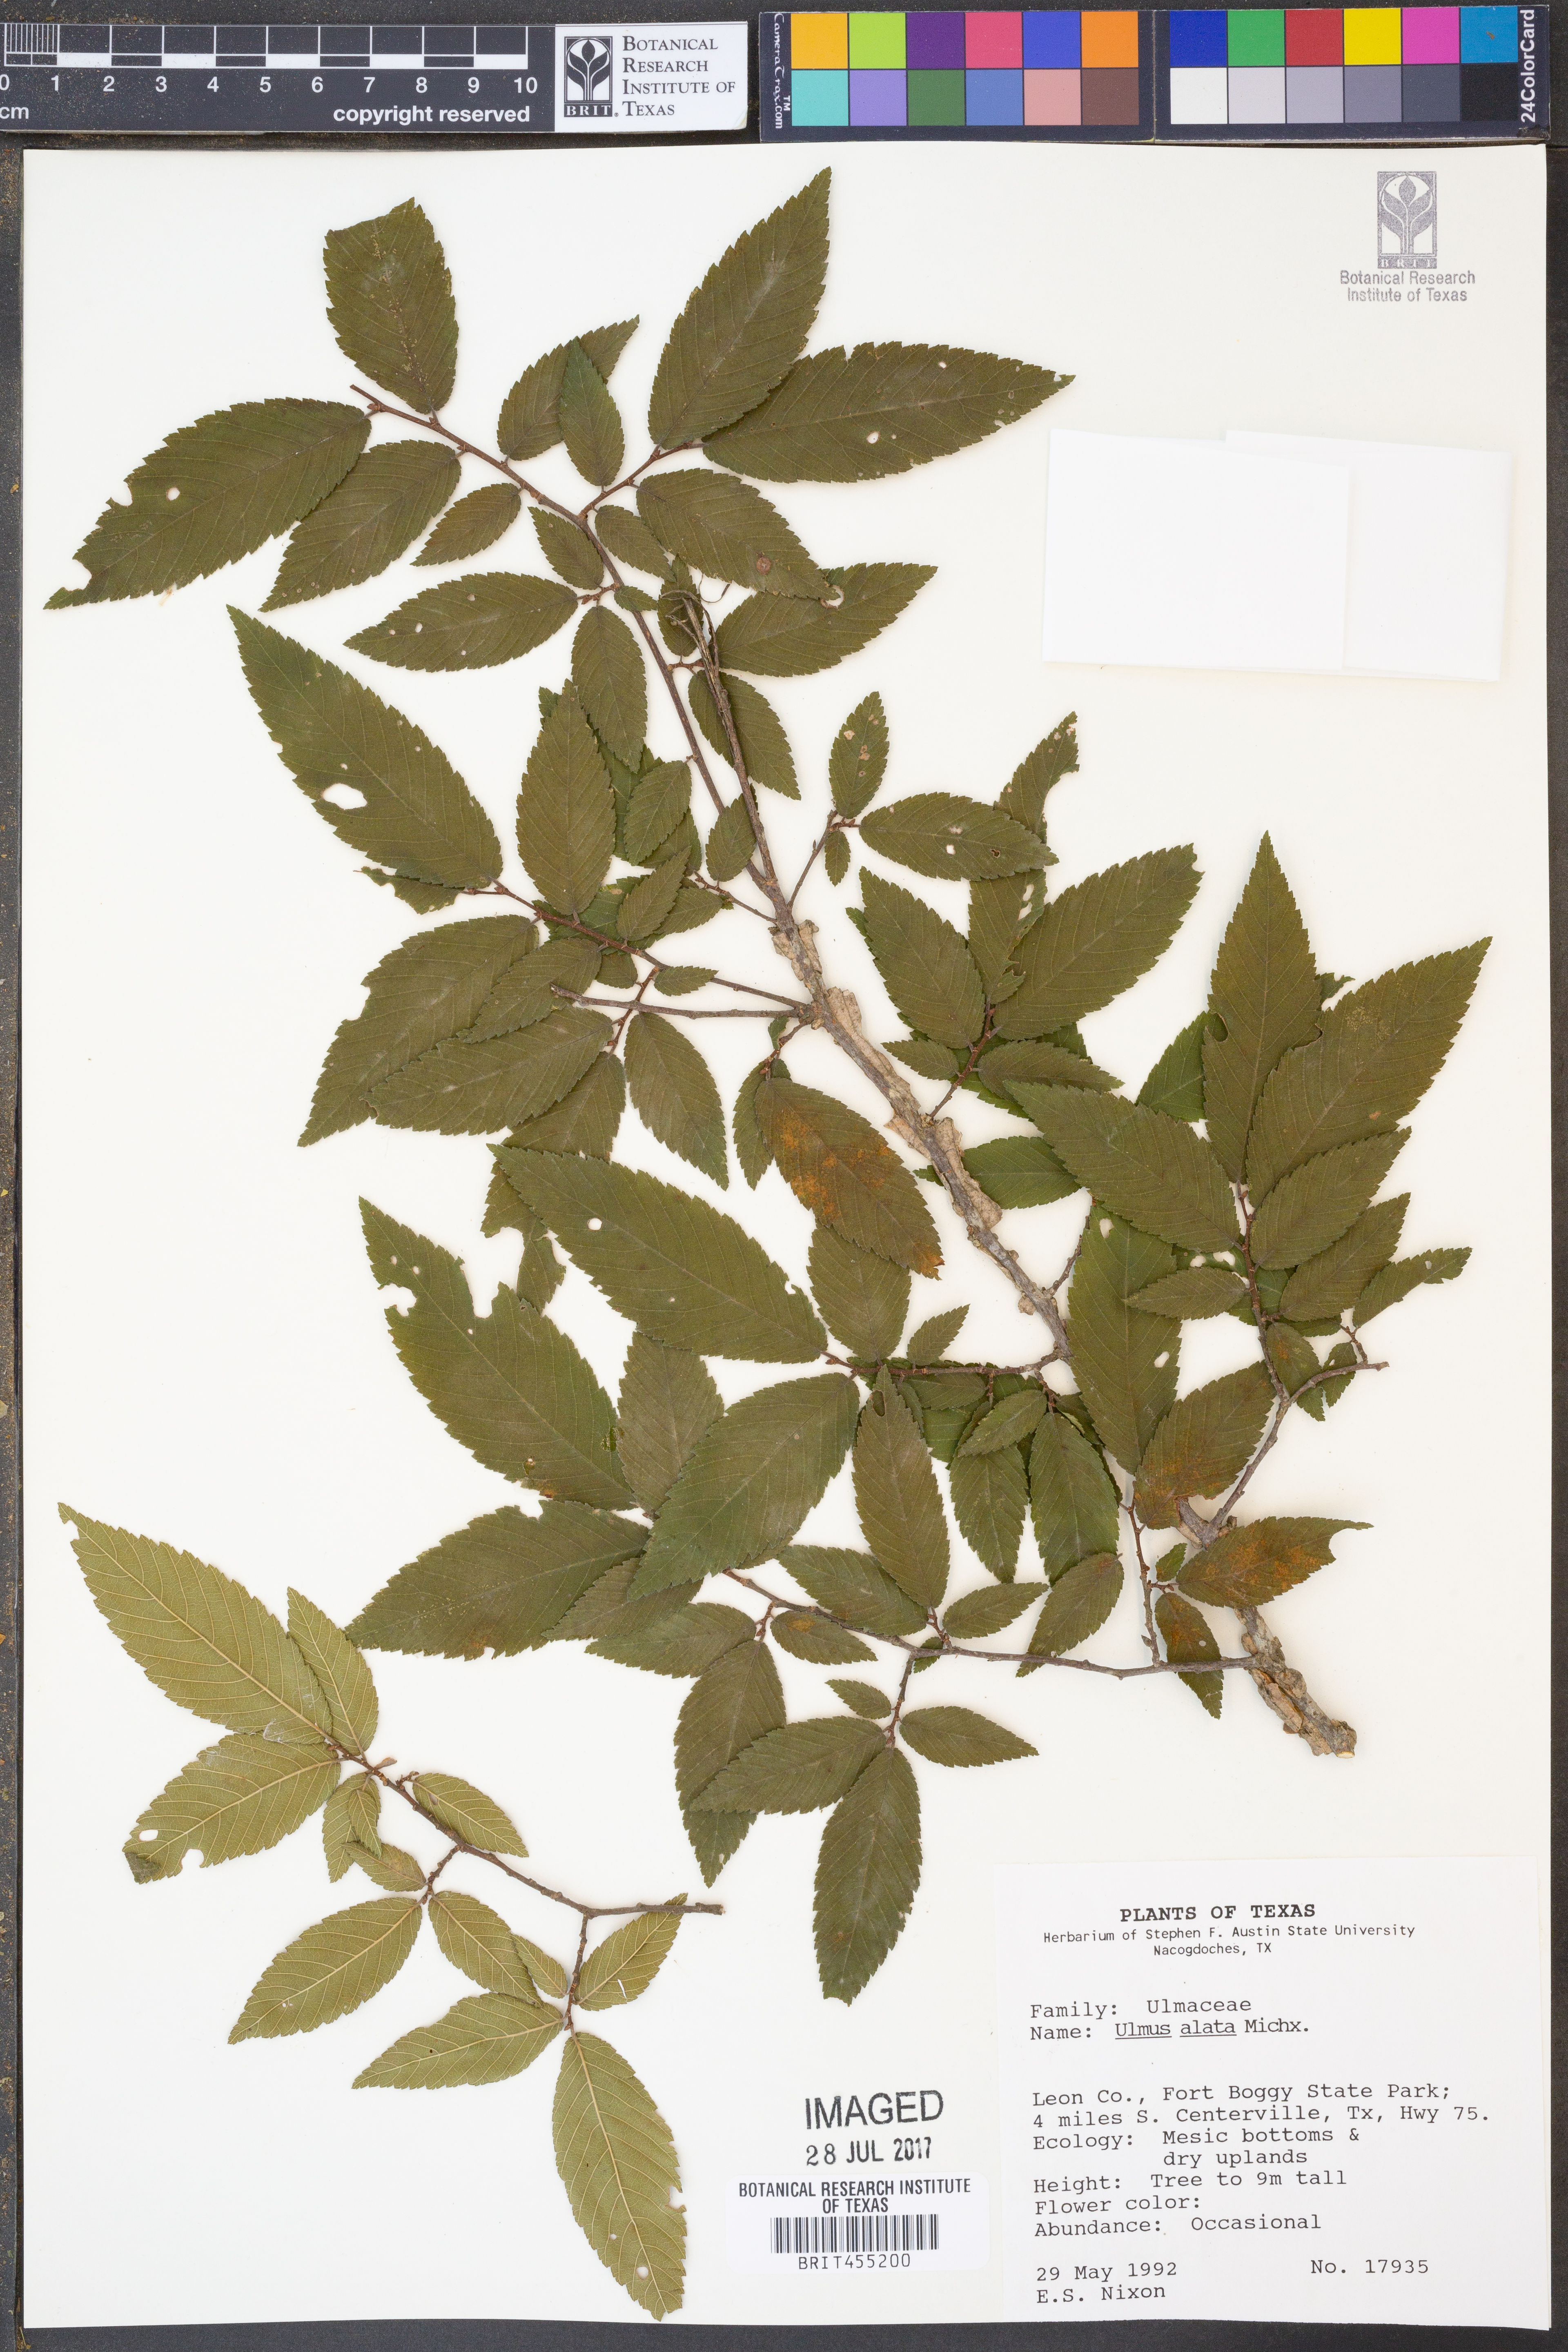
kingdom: Plantae
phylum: Tracheophyta
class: Magnoliopsida
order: Rosales
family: Ulmaceae
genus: Ulmus
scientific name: Ulmus alata
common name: Winged elm
